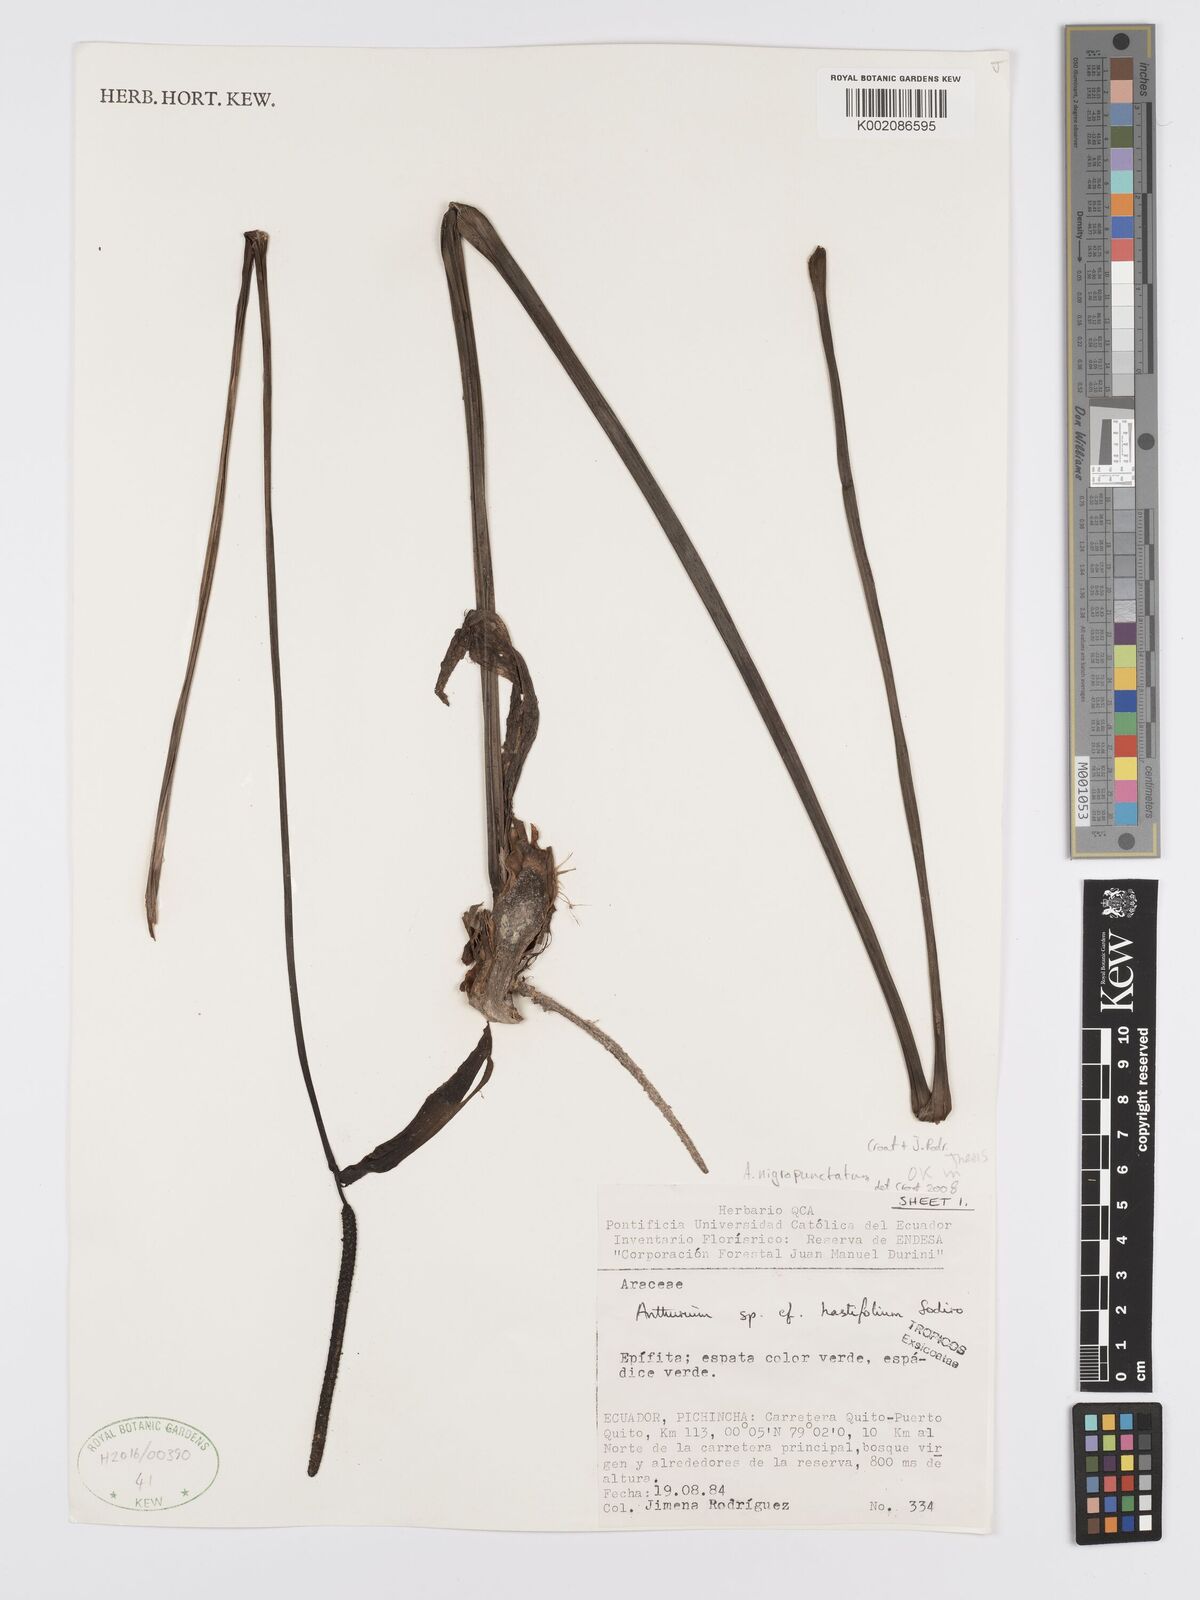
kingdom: Plantae
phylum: Tracheophyta
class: Liliopsida
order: Alismatales
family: Araceae
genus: Anthurium
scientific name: Anthurium nigropunctatum
